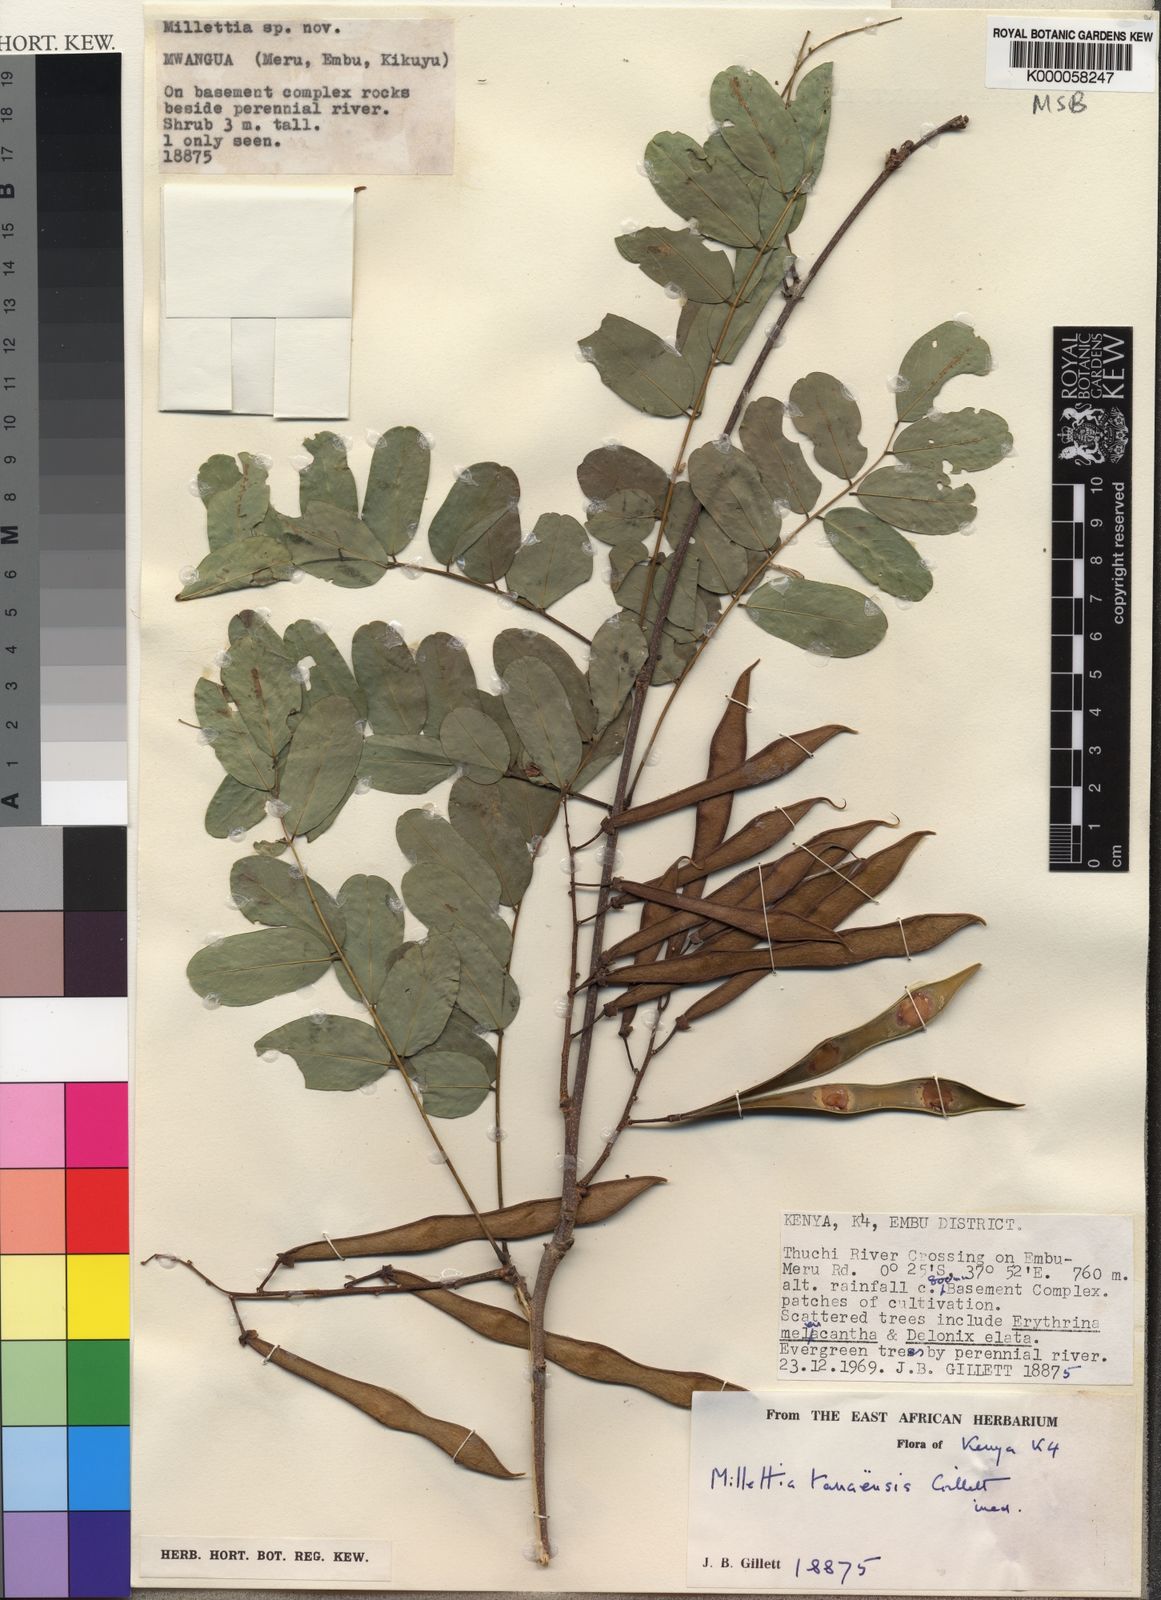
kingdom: Plantae
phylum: Tracheophyta
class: Magnoliopsida
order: Fabales
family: Fabaceae
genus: Millettia
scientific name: Millettia tanaensis
